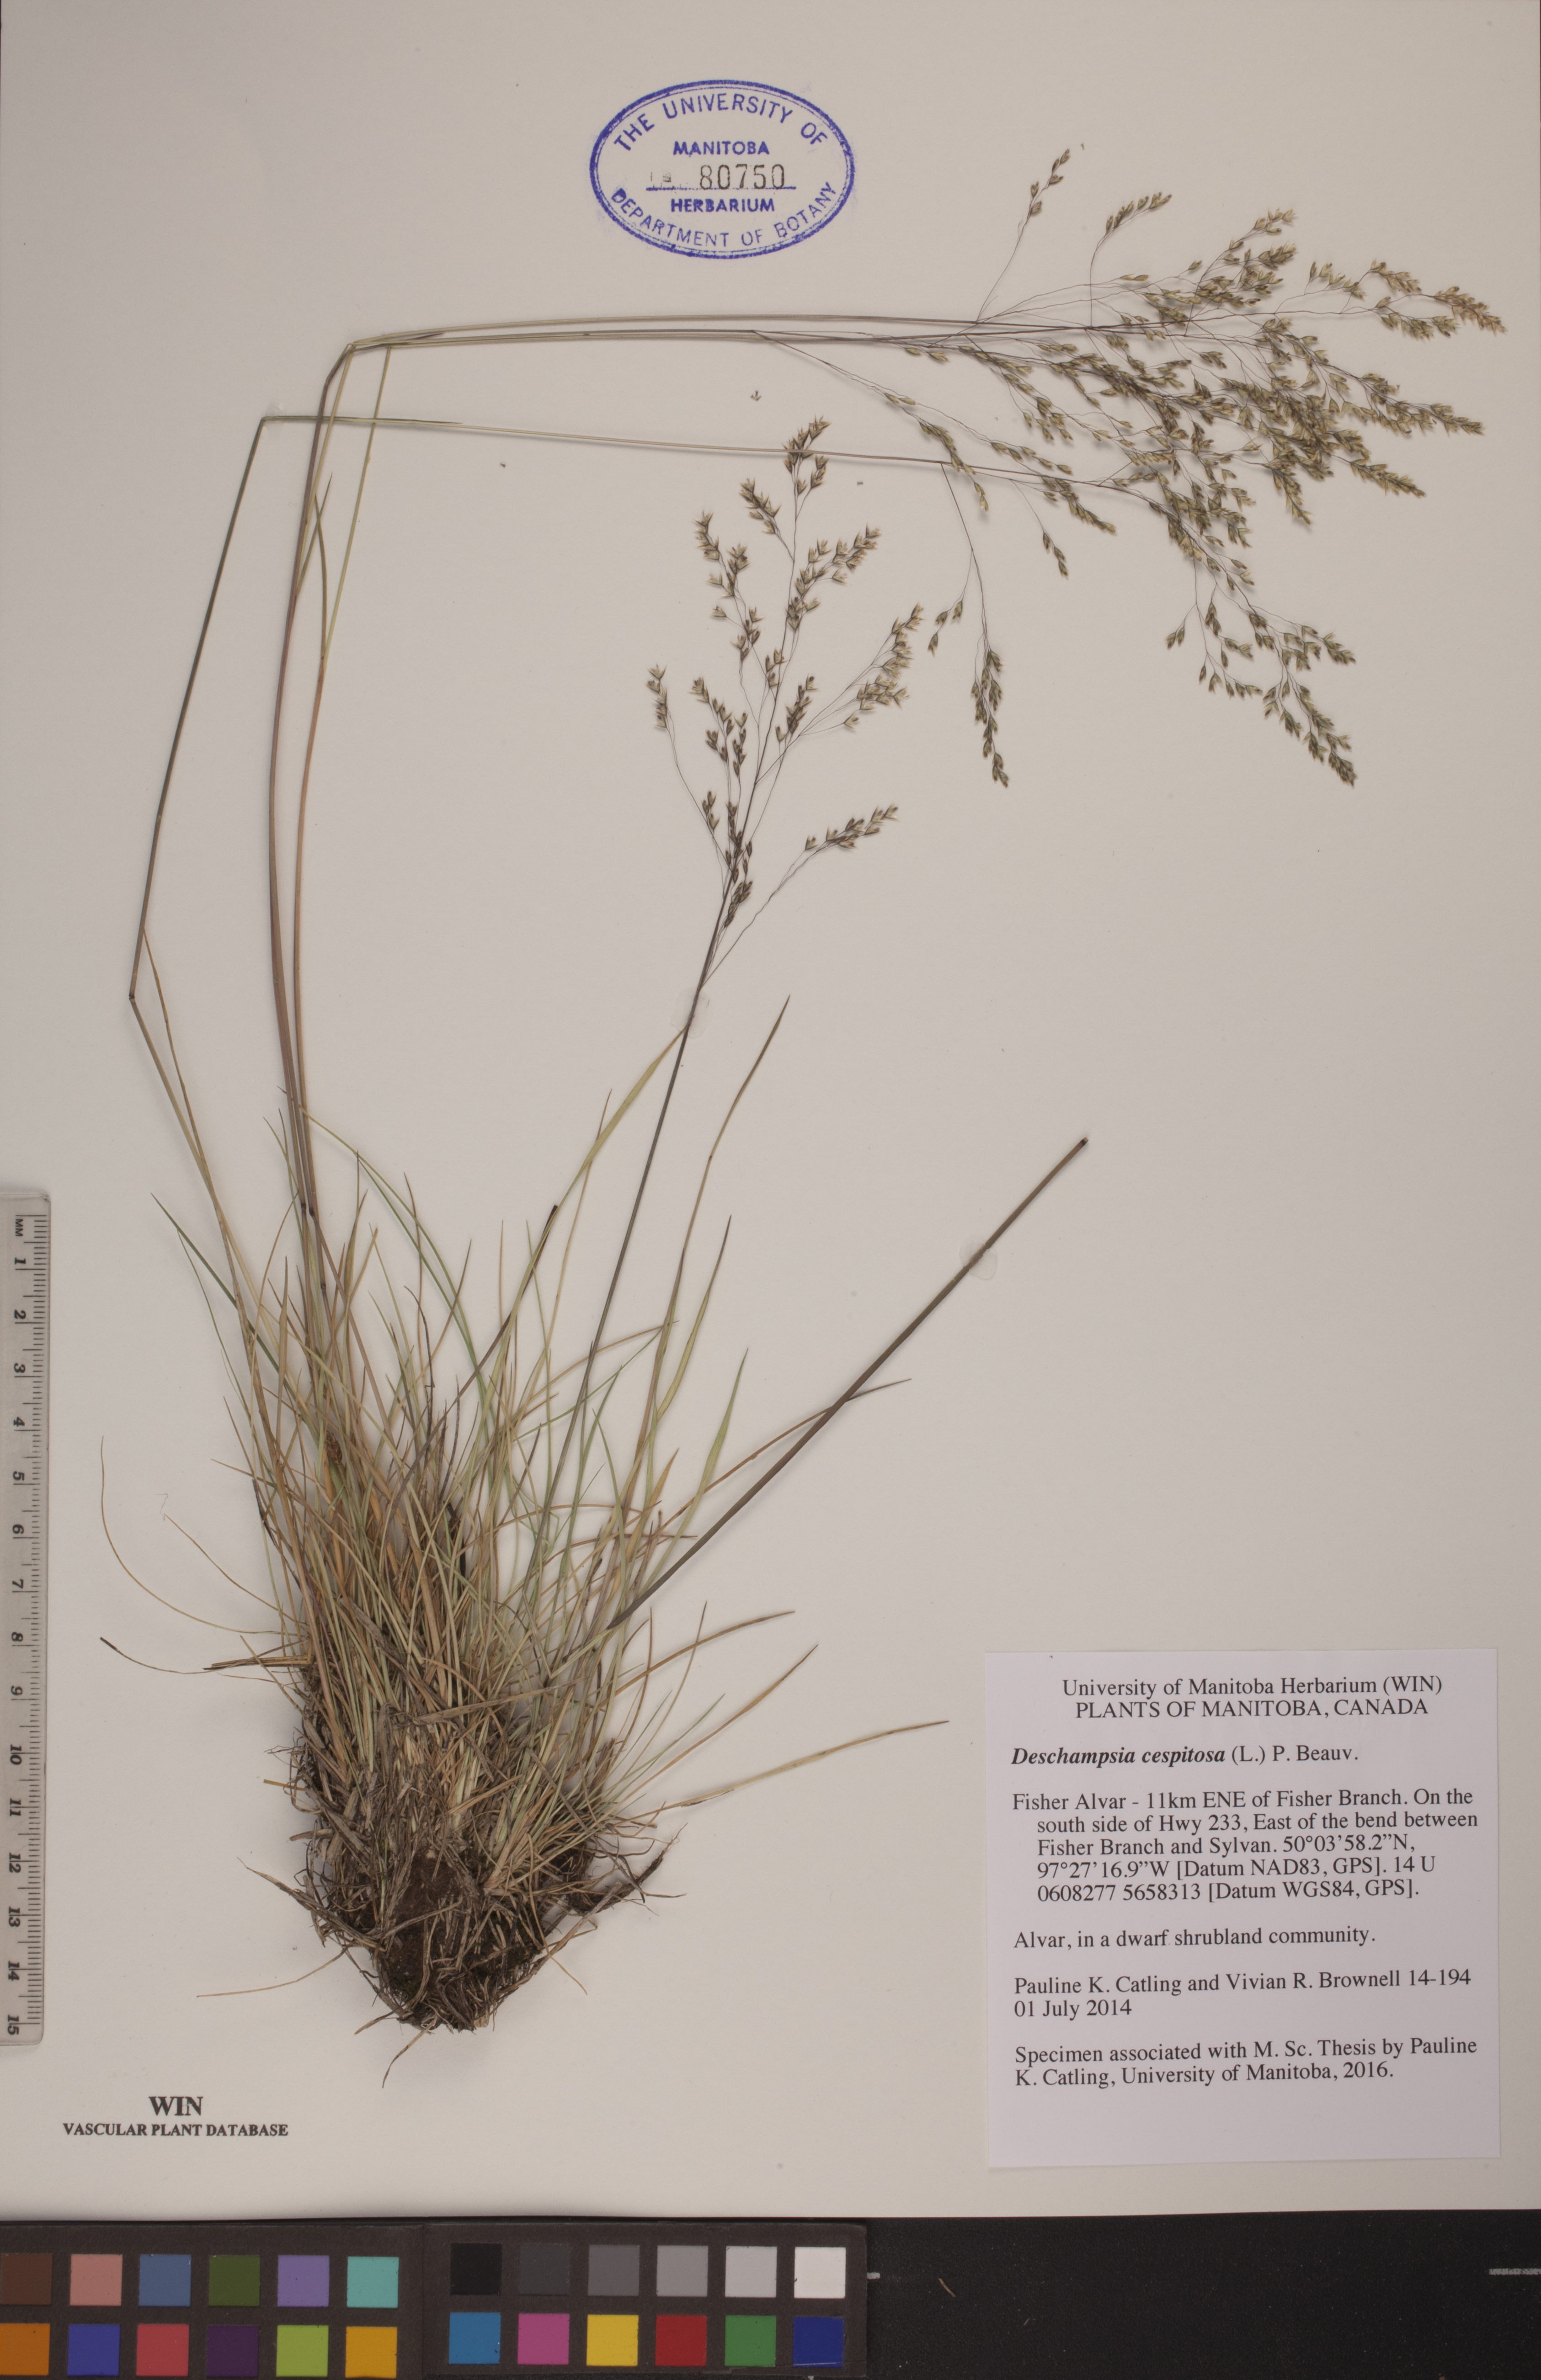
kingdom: Plantae
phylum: Tracheophyta
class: Liliopsida
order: Poales
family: Poaceae
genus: Deschampsia
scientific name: Deschampsia cespitosa
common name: Tufted hair-grass
